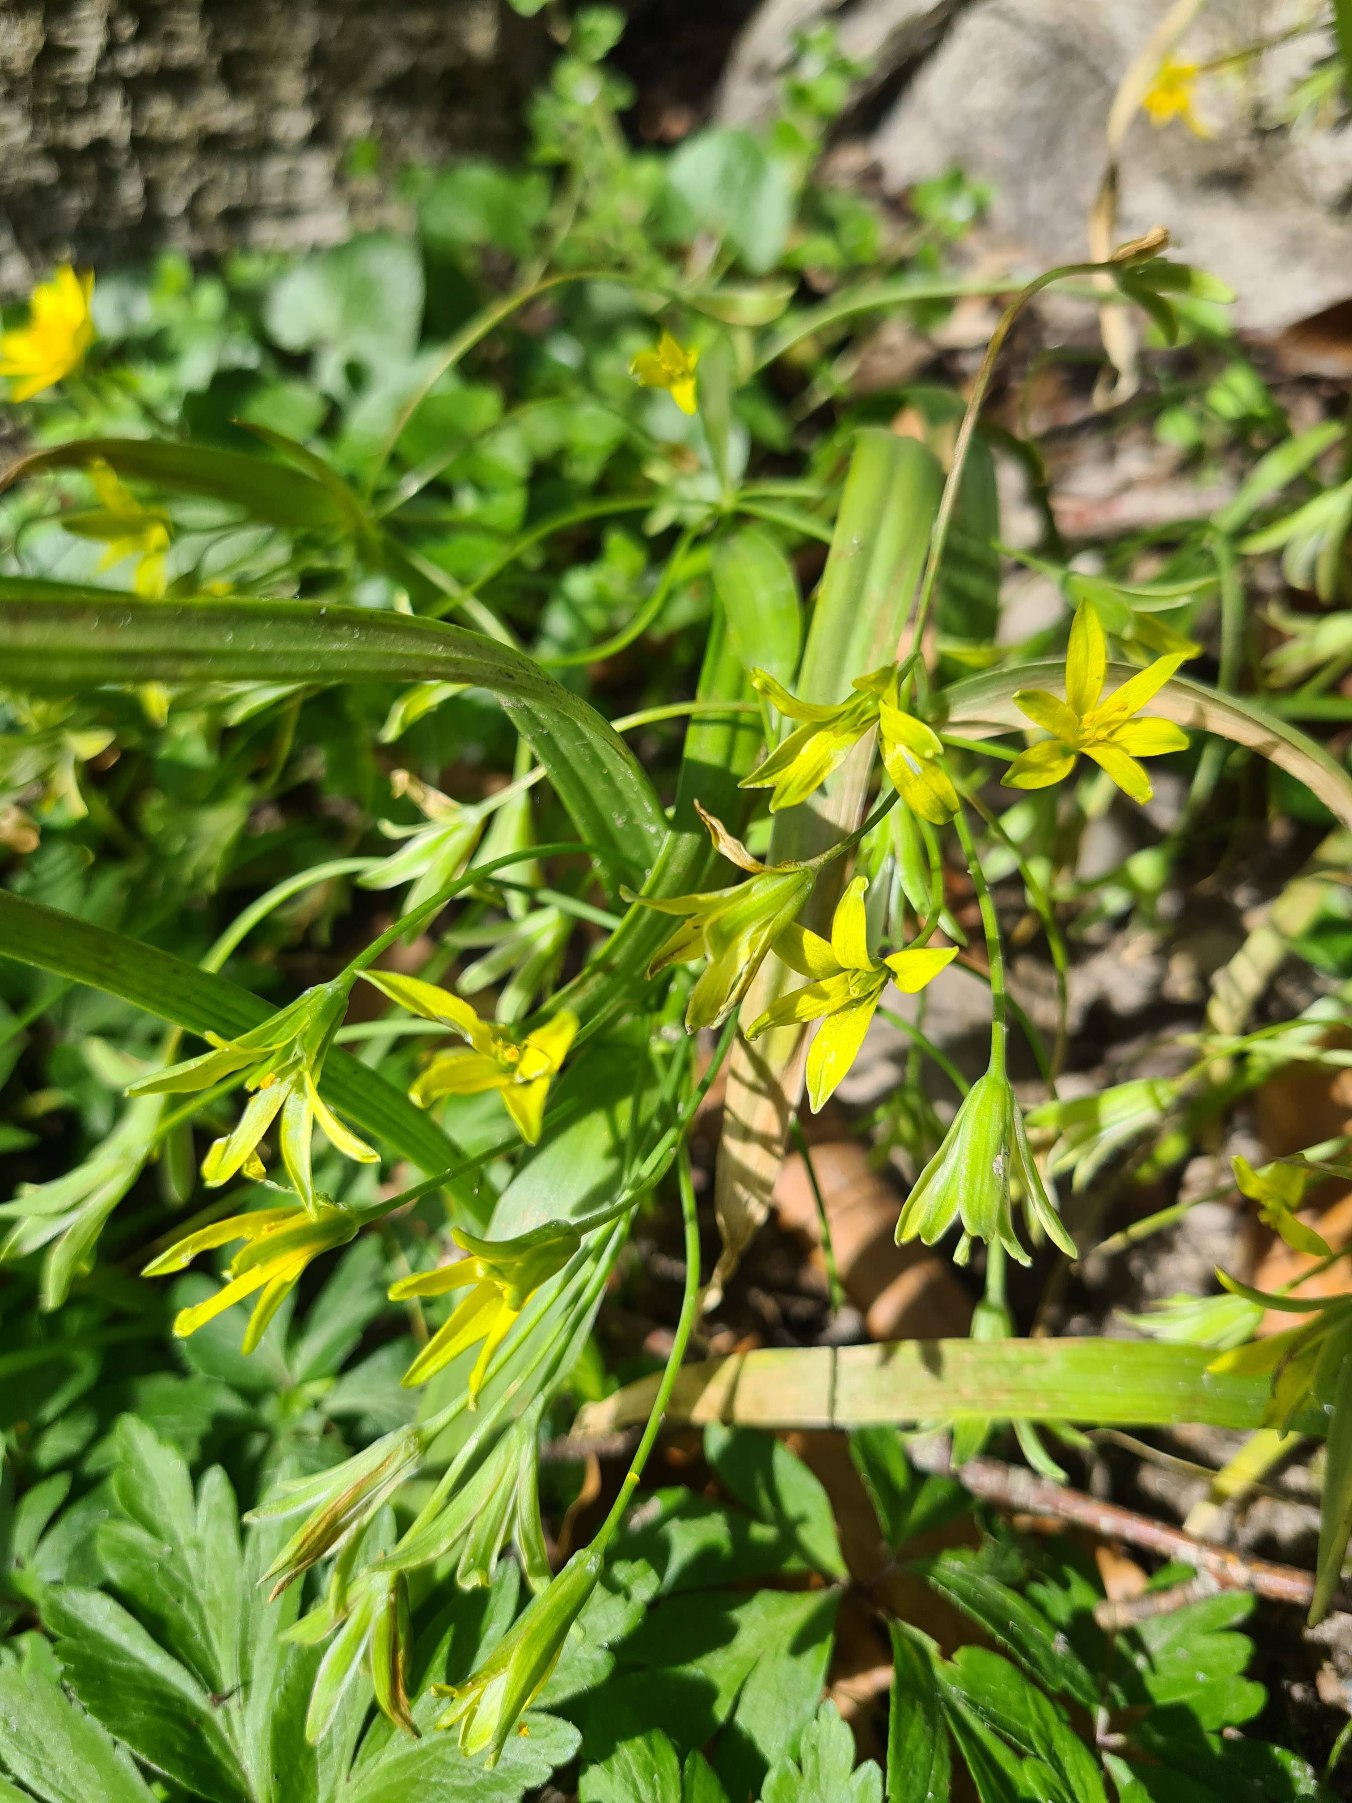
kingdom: Plantae
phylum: Tracheophyta
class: Liliopsida
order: Liliales
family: Liliaceae
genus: Gagea
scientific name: Gagea lutea
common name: Almindelig guldstjerne
